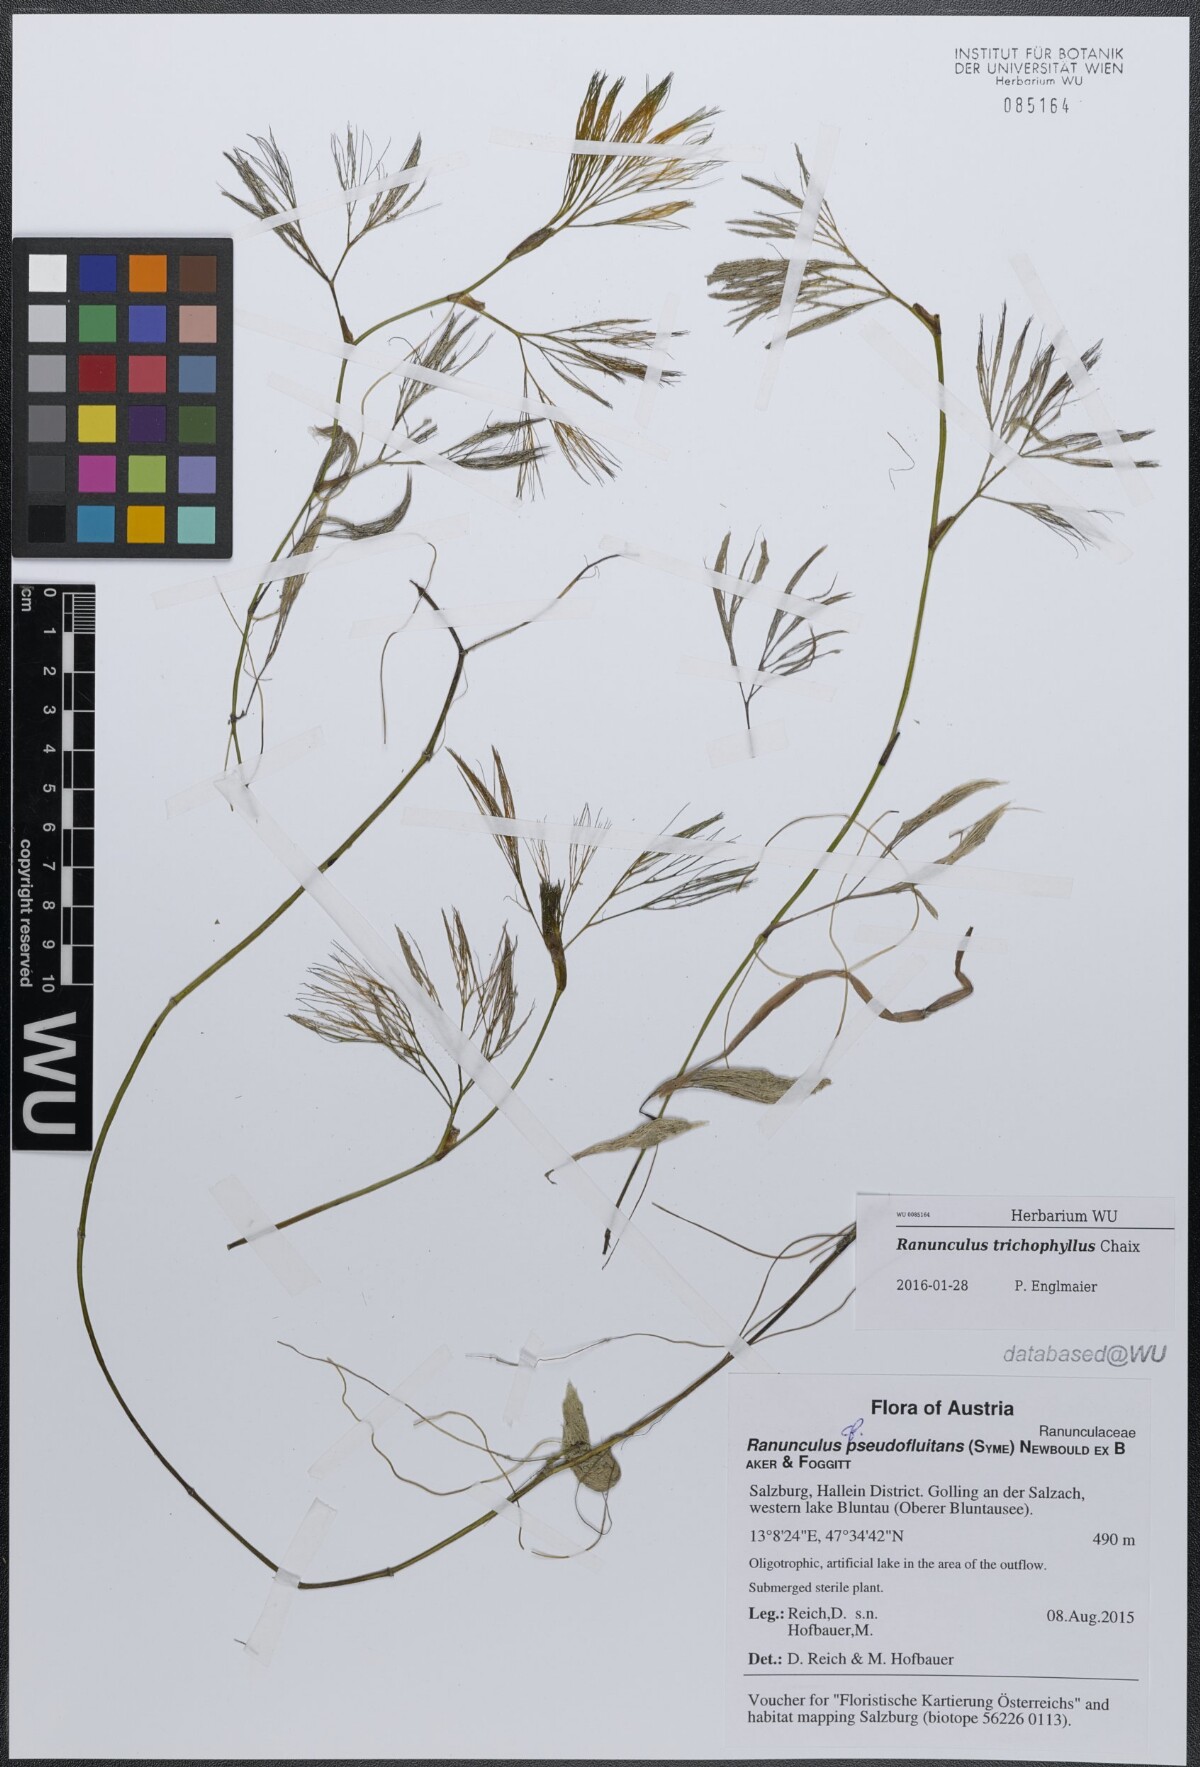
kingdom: Plantae
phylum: Tracheophyta
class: Magnoliopsida
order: Ranunculales
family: Ranunculaceae
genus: Ranunculus
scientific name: Ranunculus trichophyllus
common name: Thread-leaved water-crowfoot
